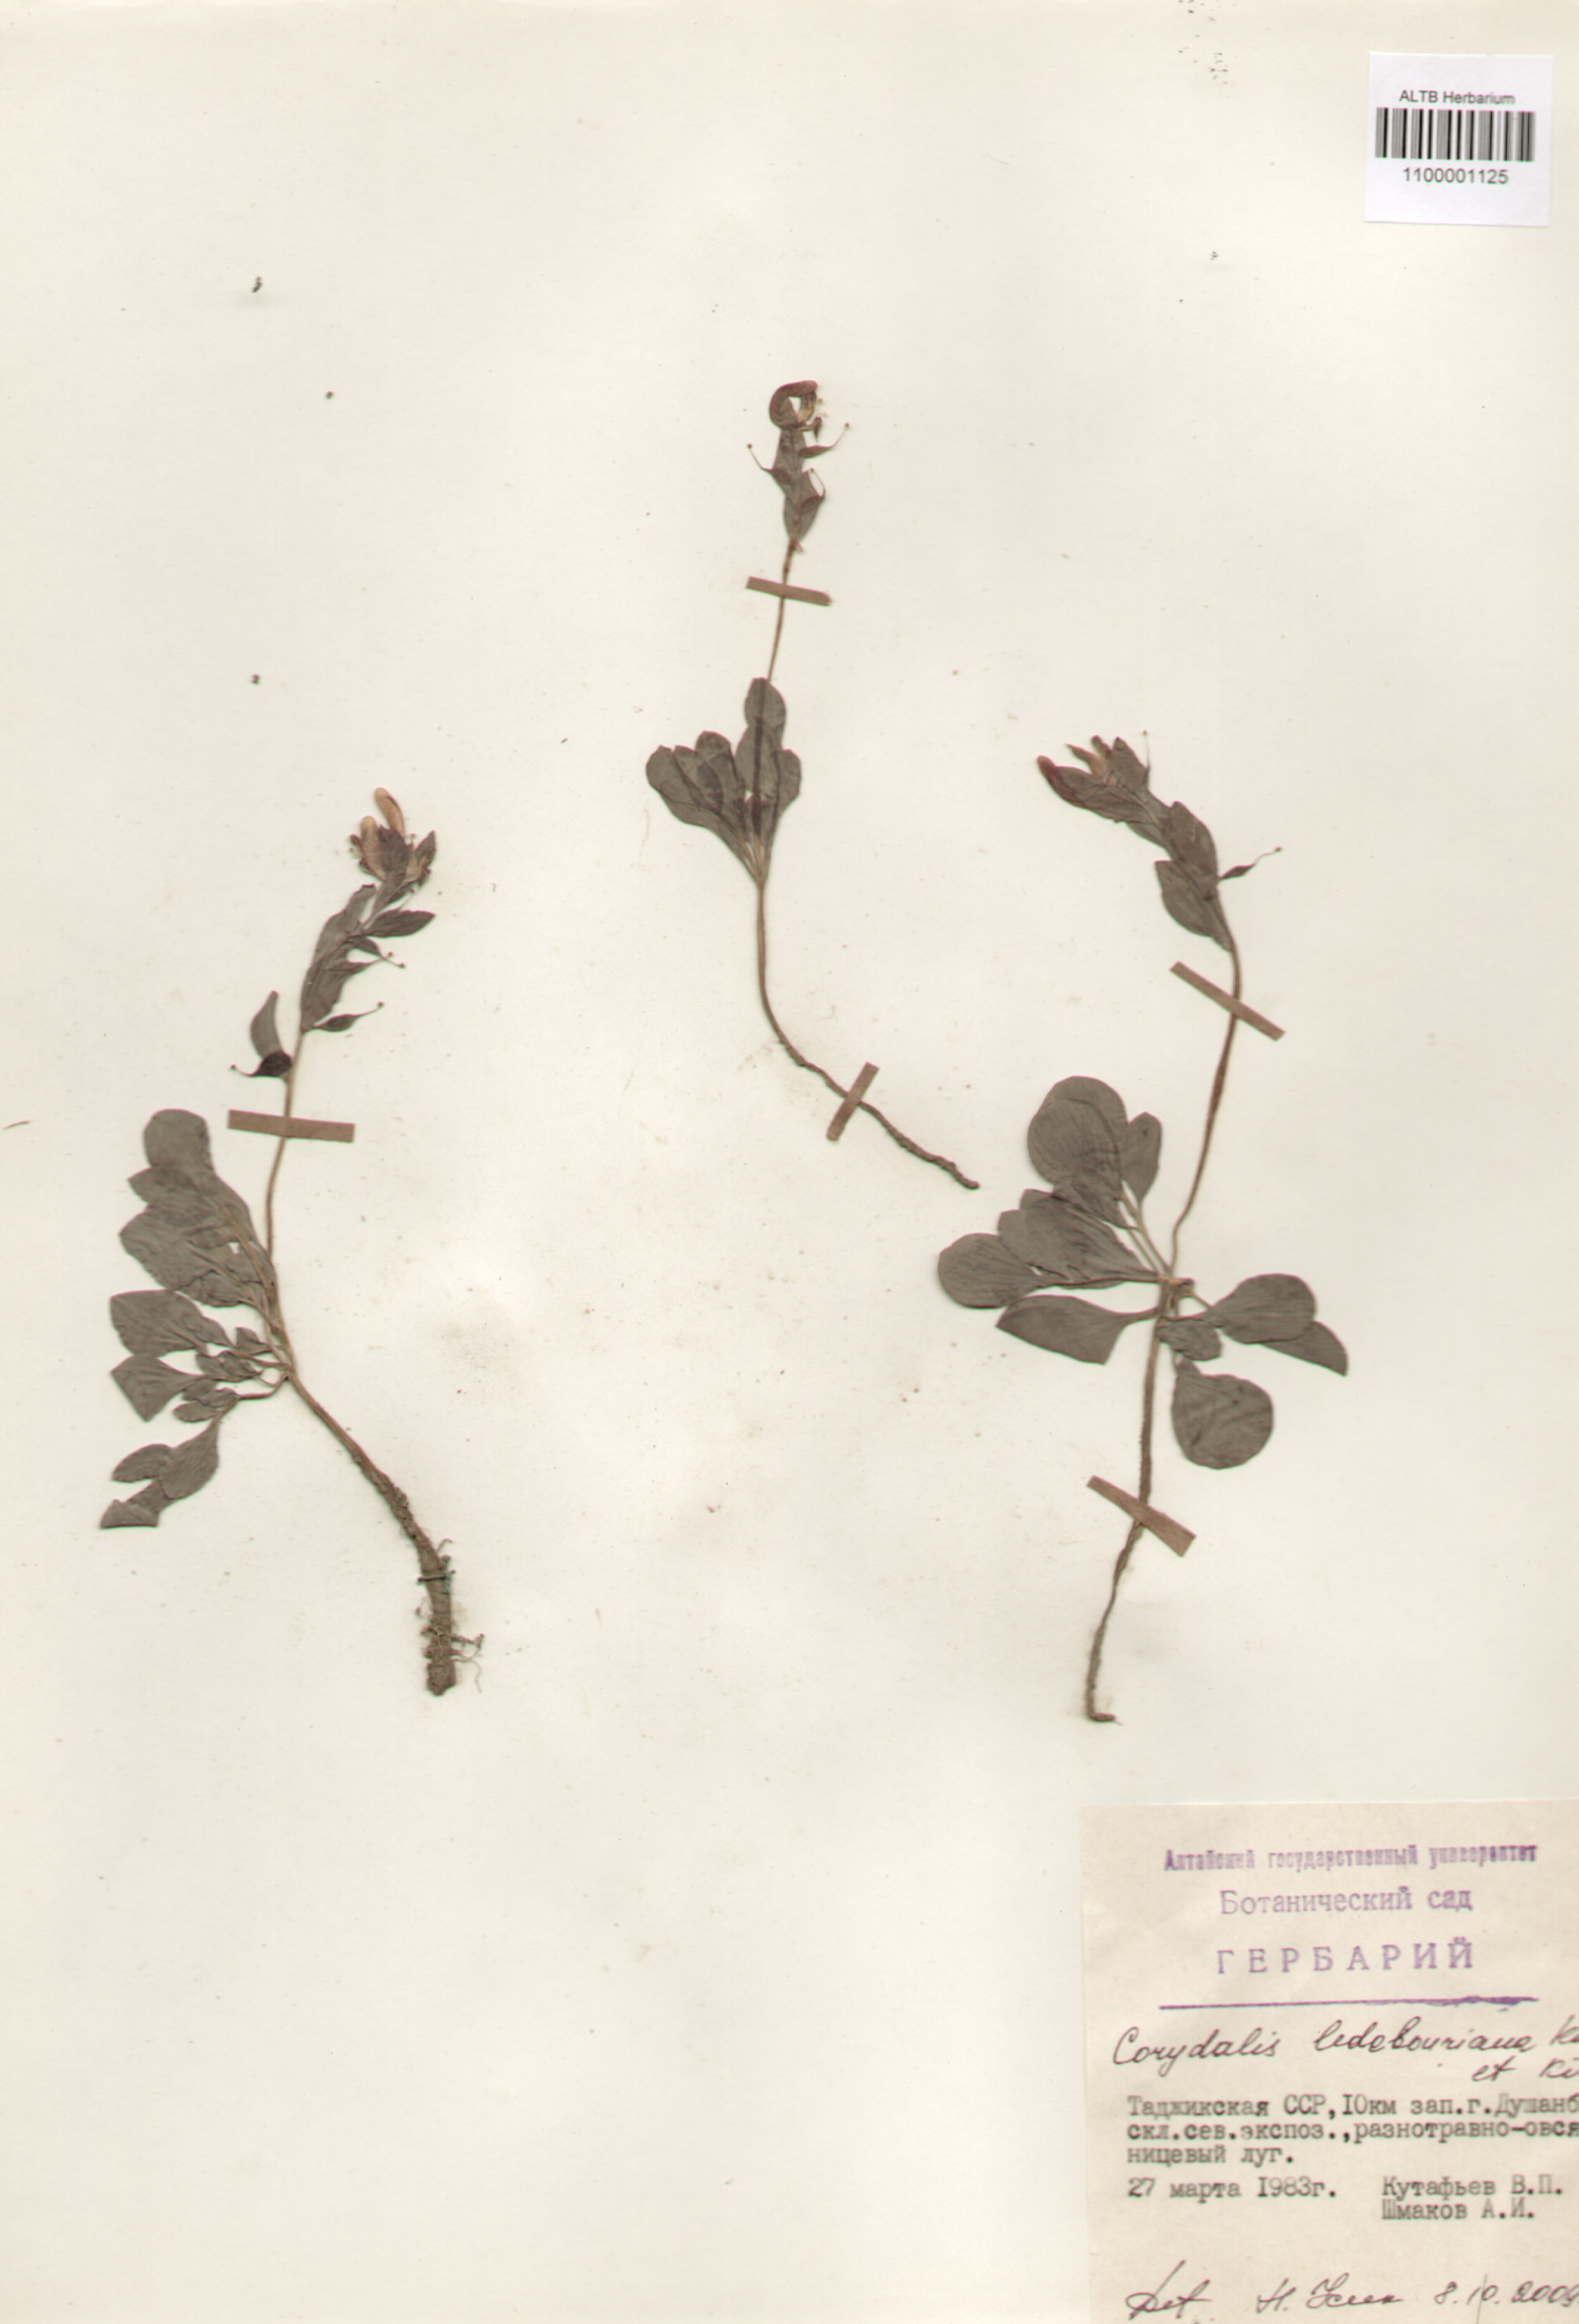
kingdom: Plantae
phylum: Tracheophyta
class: Magnoliopsida
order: Ranunculales
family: Papaveraceae
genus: Corydalis
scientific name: Corydalis ledebouriana
